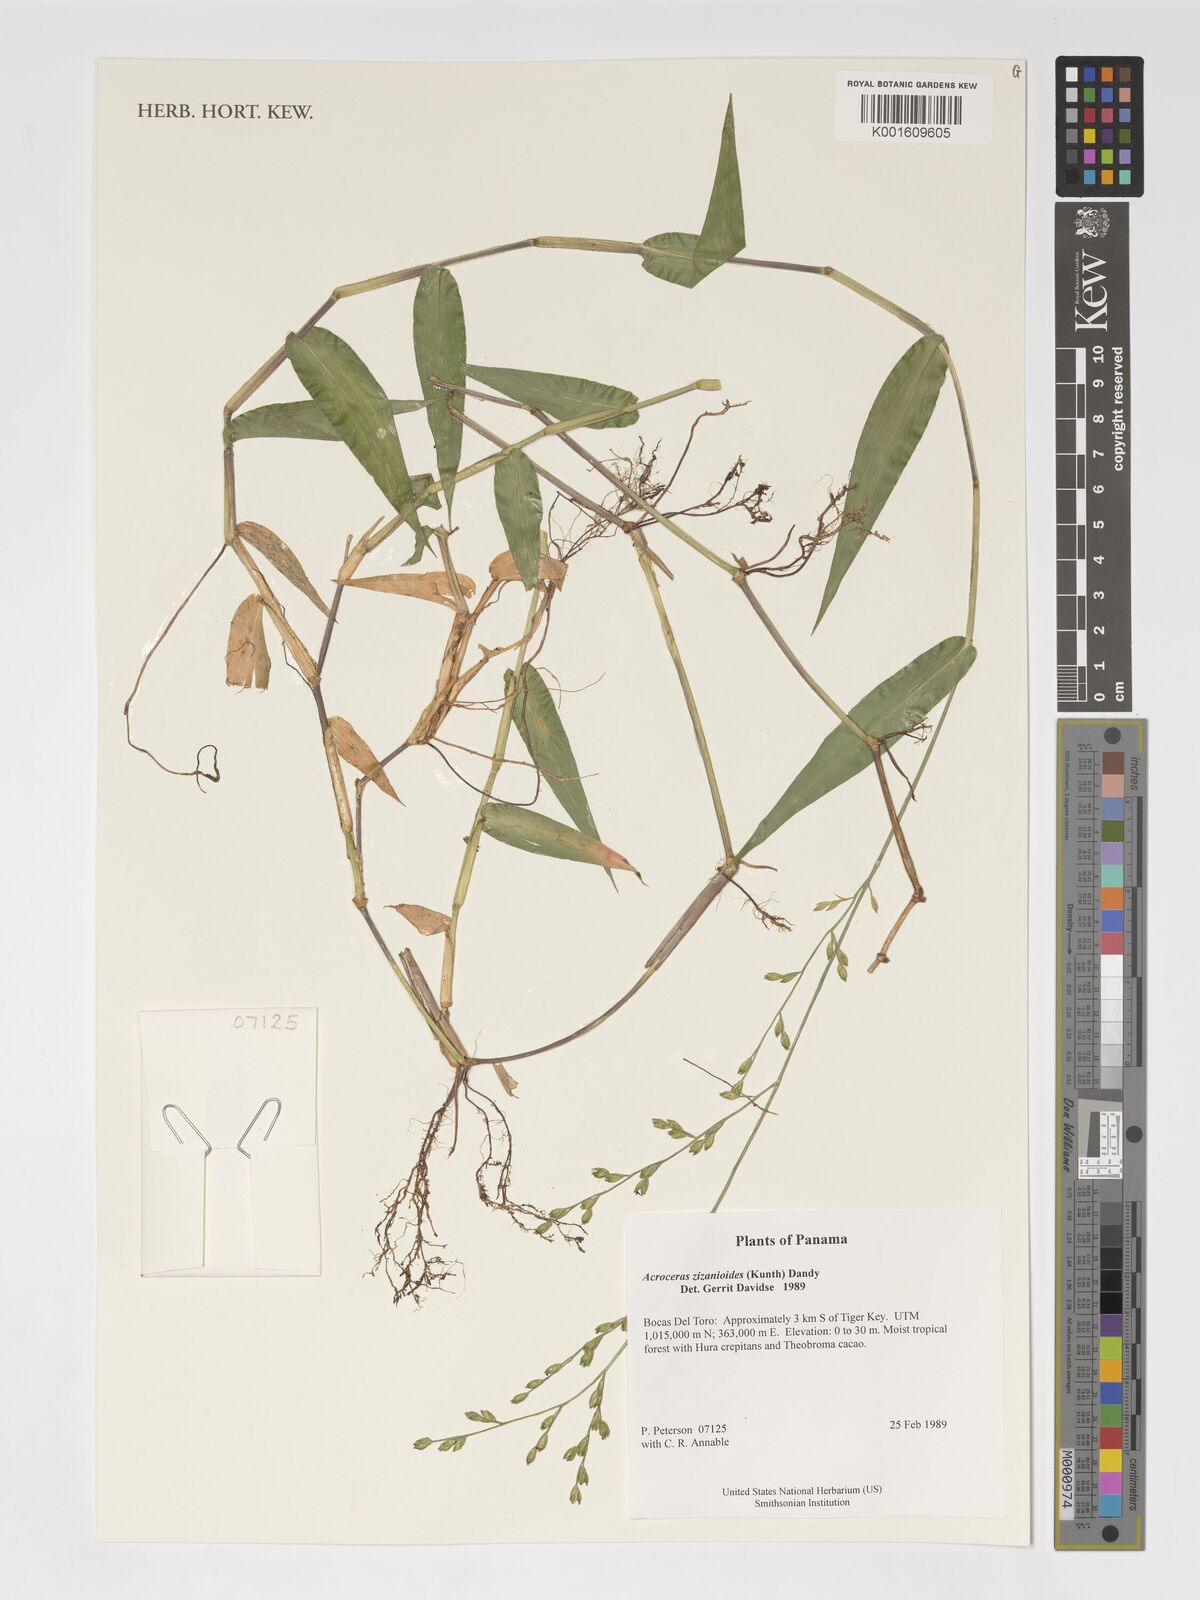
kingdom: Plantae
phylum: Tracheophyta
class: Liliopsida
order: Poales
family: Poaceae
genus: Acroceras
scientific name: Acroceras zizanioides
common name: Oat grass
